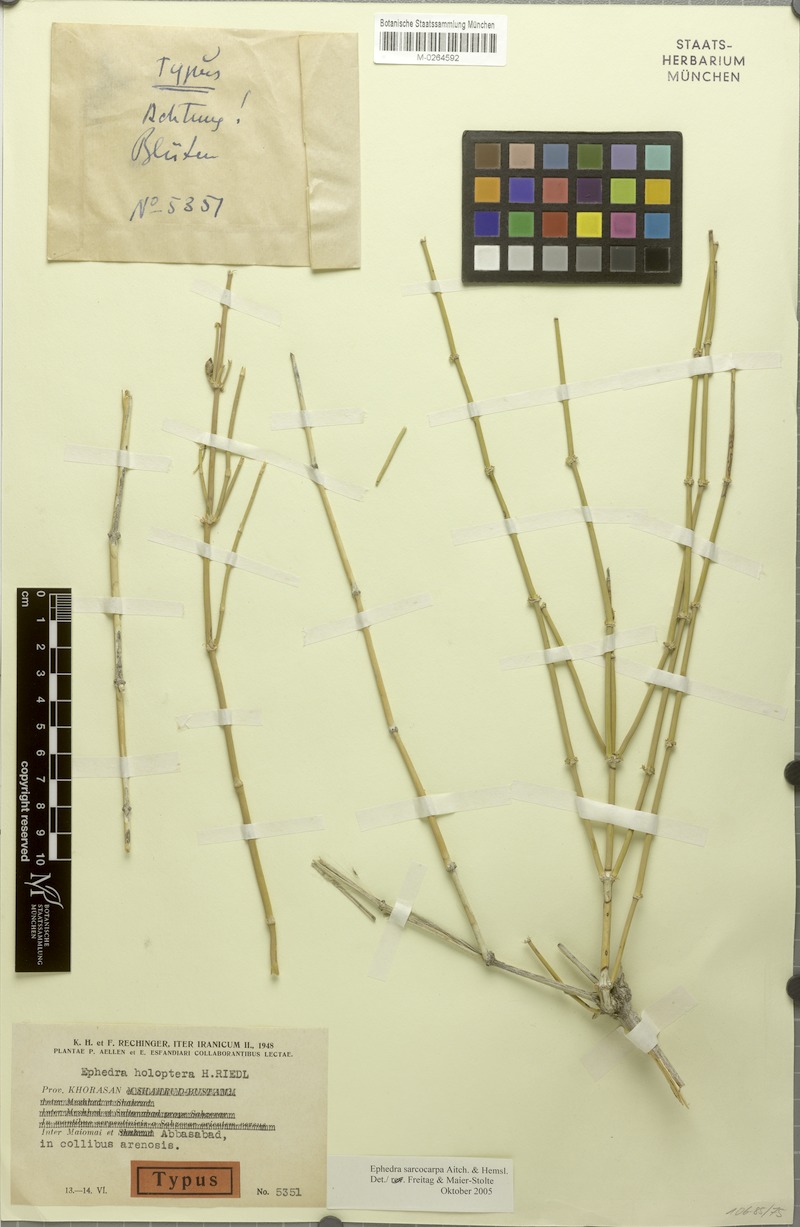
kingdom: Plantae
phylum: Tracheophyta
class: Gnetopsida
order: Ephedrales
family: Ephedraceae
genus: Ephedra
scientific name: Ephedra sarcocarpa
